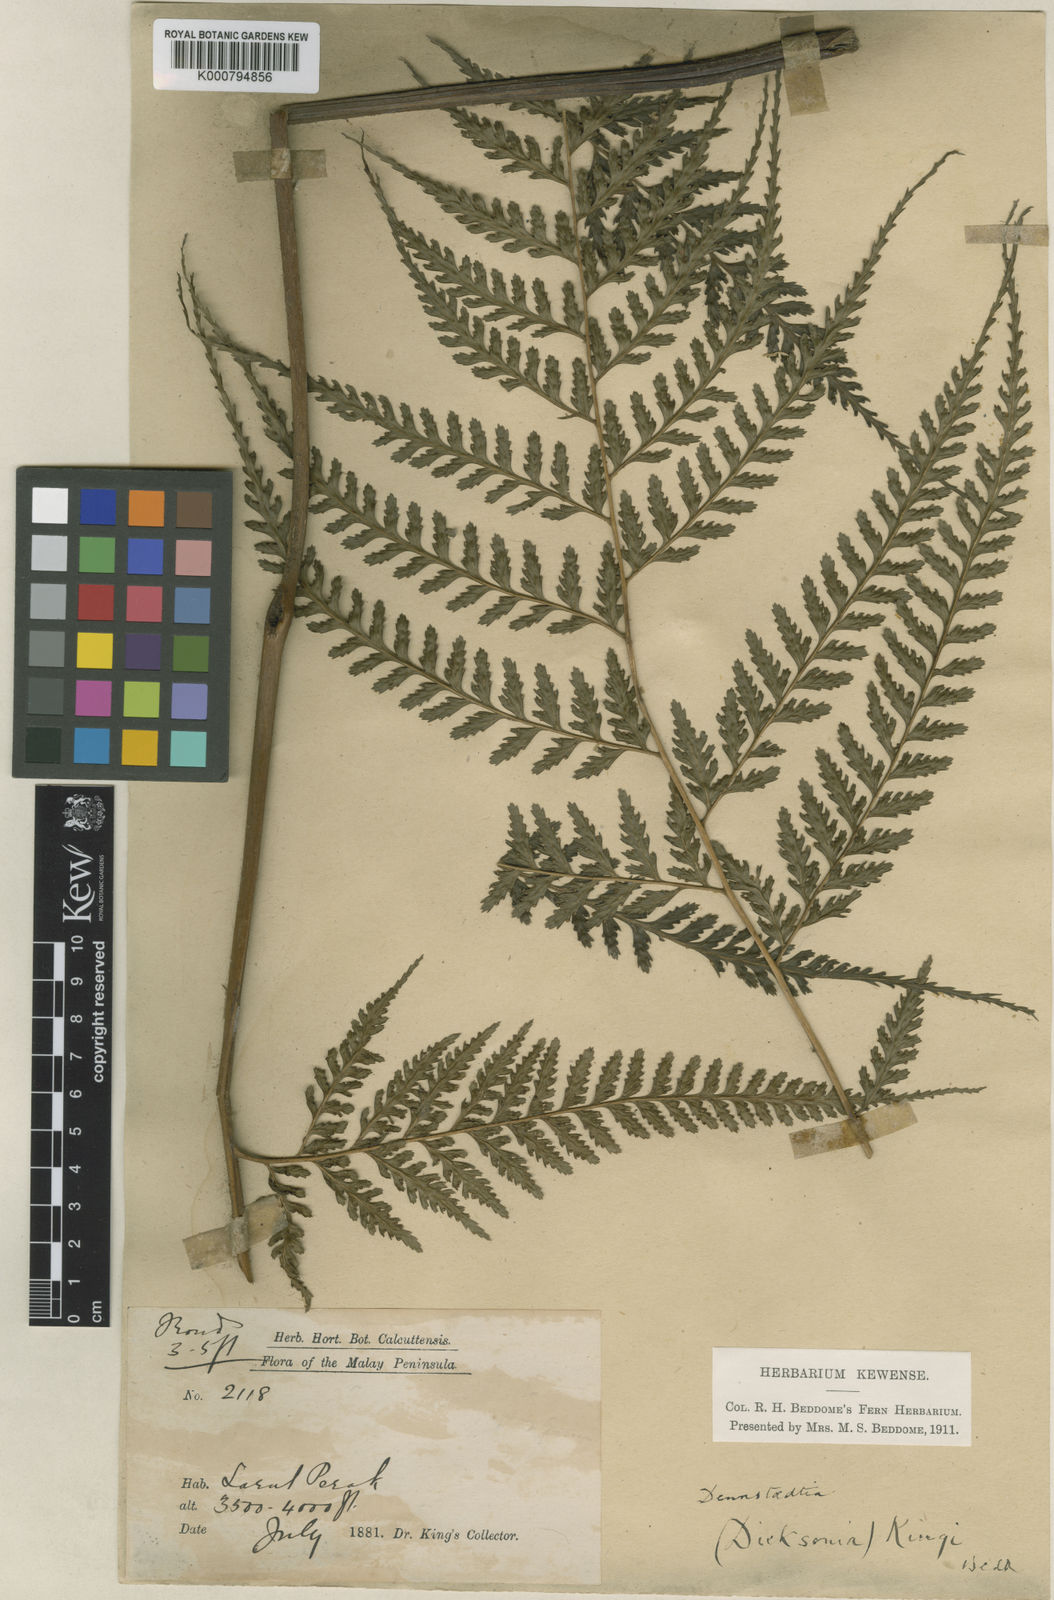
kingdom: Plantae
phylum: Tracheophyta
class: Polypodiopsida
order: Polypodiales
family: Saccolomataceae
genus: Orthiopteris
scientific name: Orthiopteris campylura
